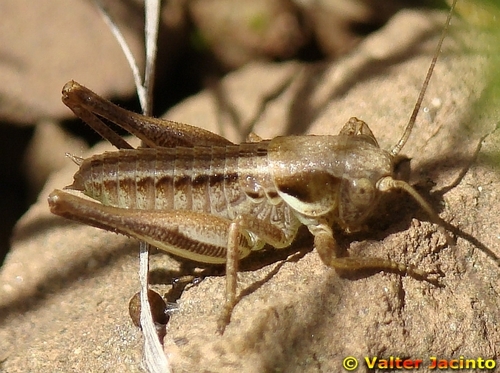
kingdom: Animalia
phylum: Arthropoda
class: Insecta
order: Orthoptera
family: Tettigoniidae
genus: Pterolepis
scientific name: Pterolepis
